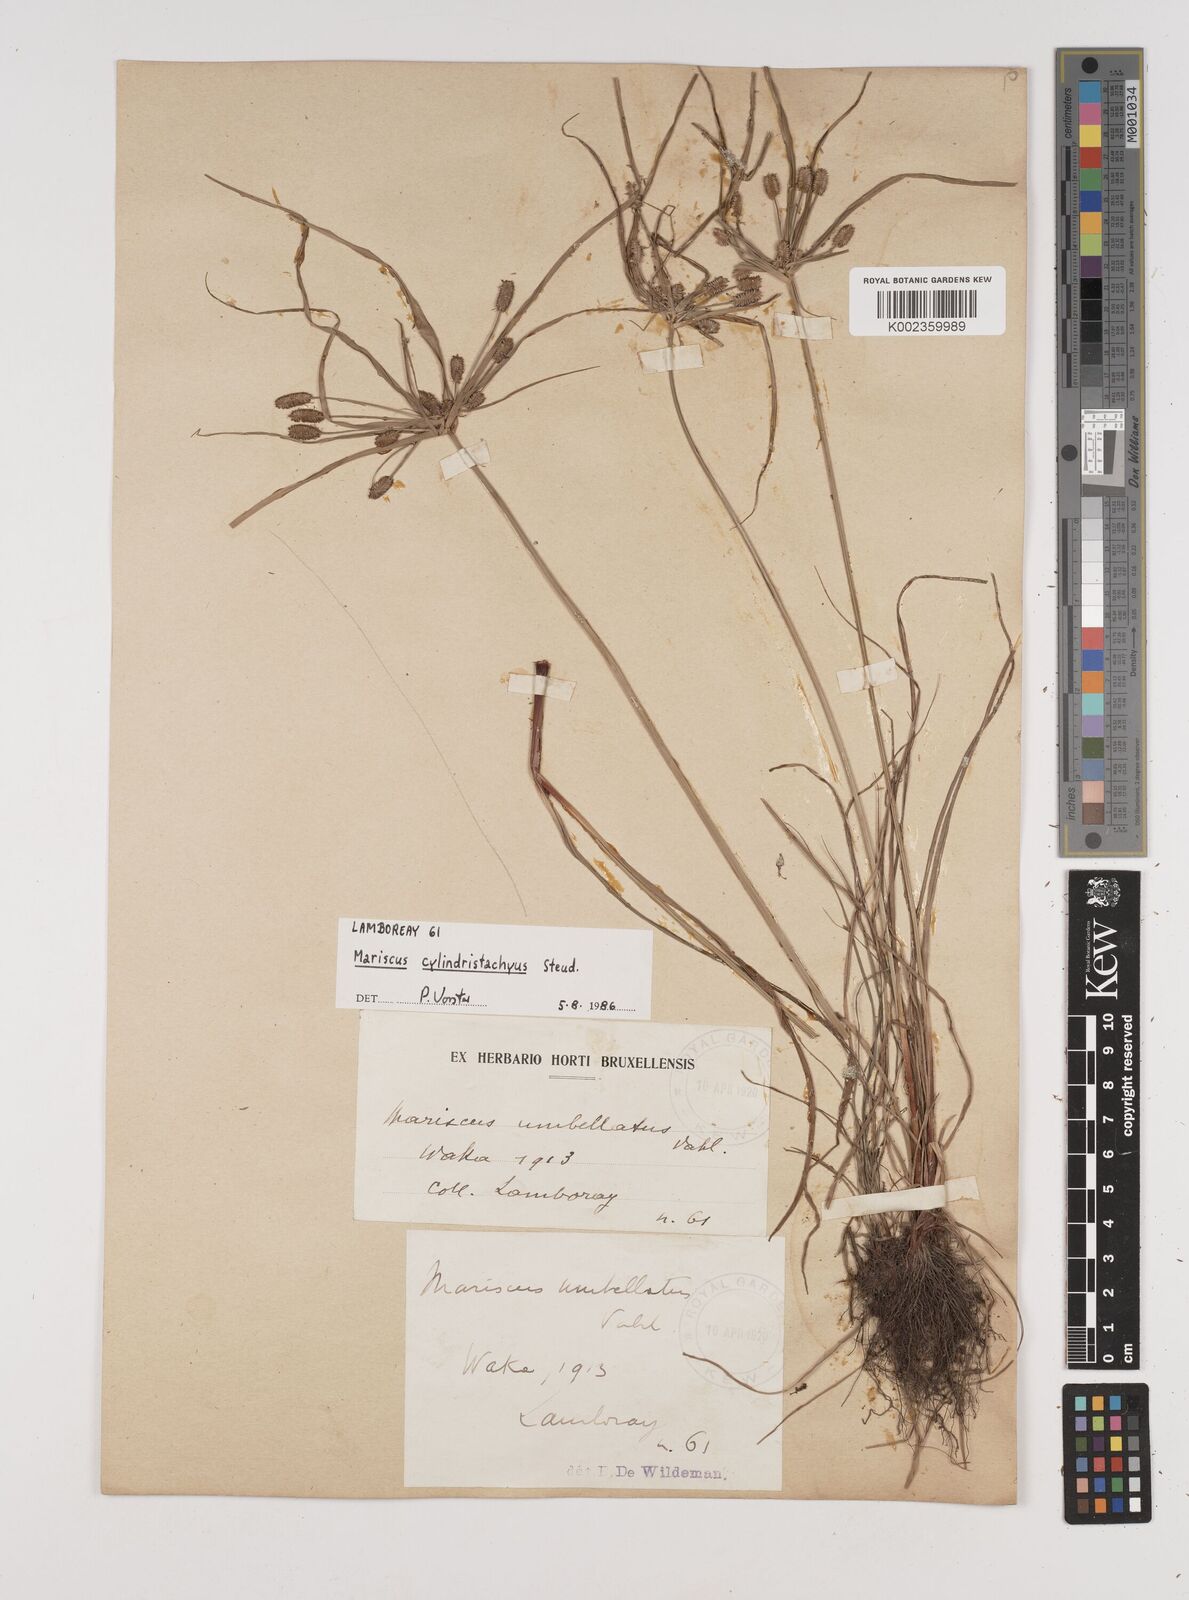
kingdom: Plantae
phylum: Tracheophyta
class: Liliopsida
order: Poales
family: Cyperaceae
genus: Cyperus
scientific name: Cyperus cyperoides
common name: Pacific island flat sedge
